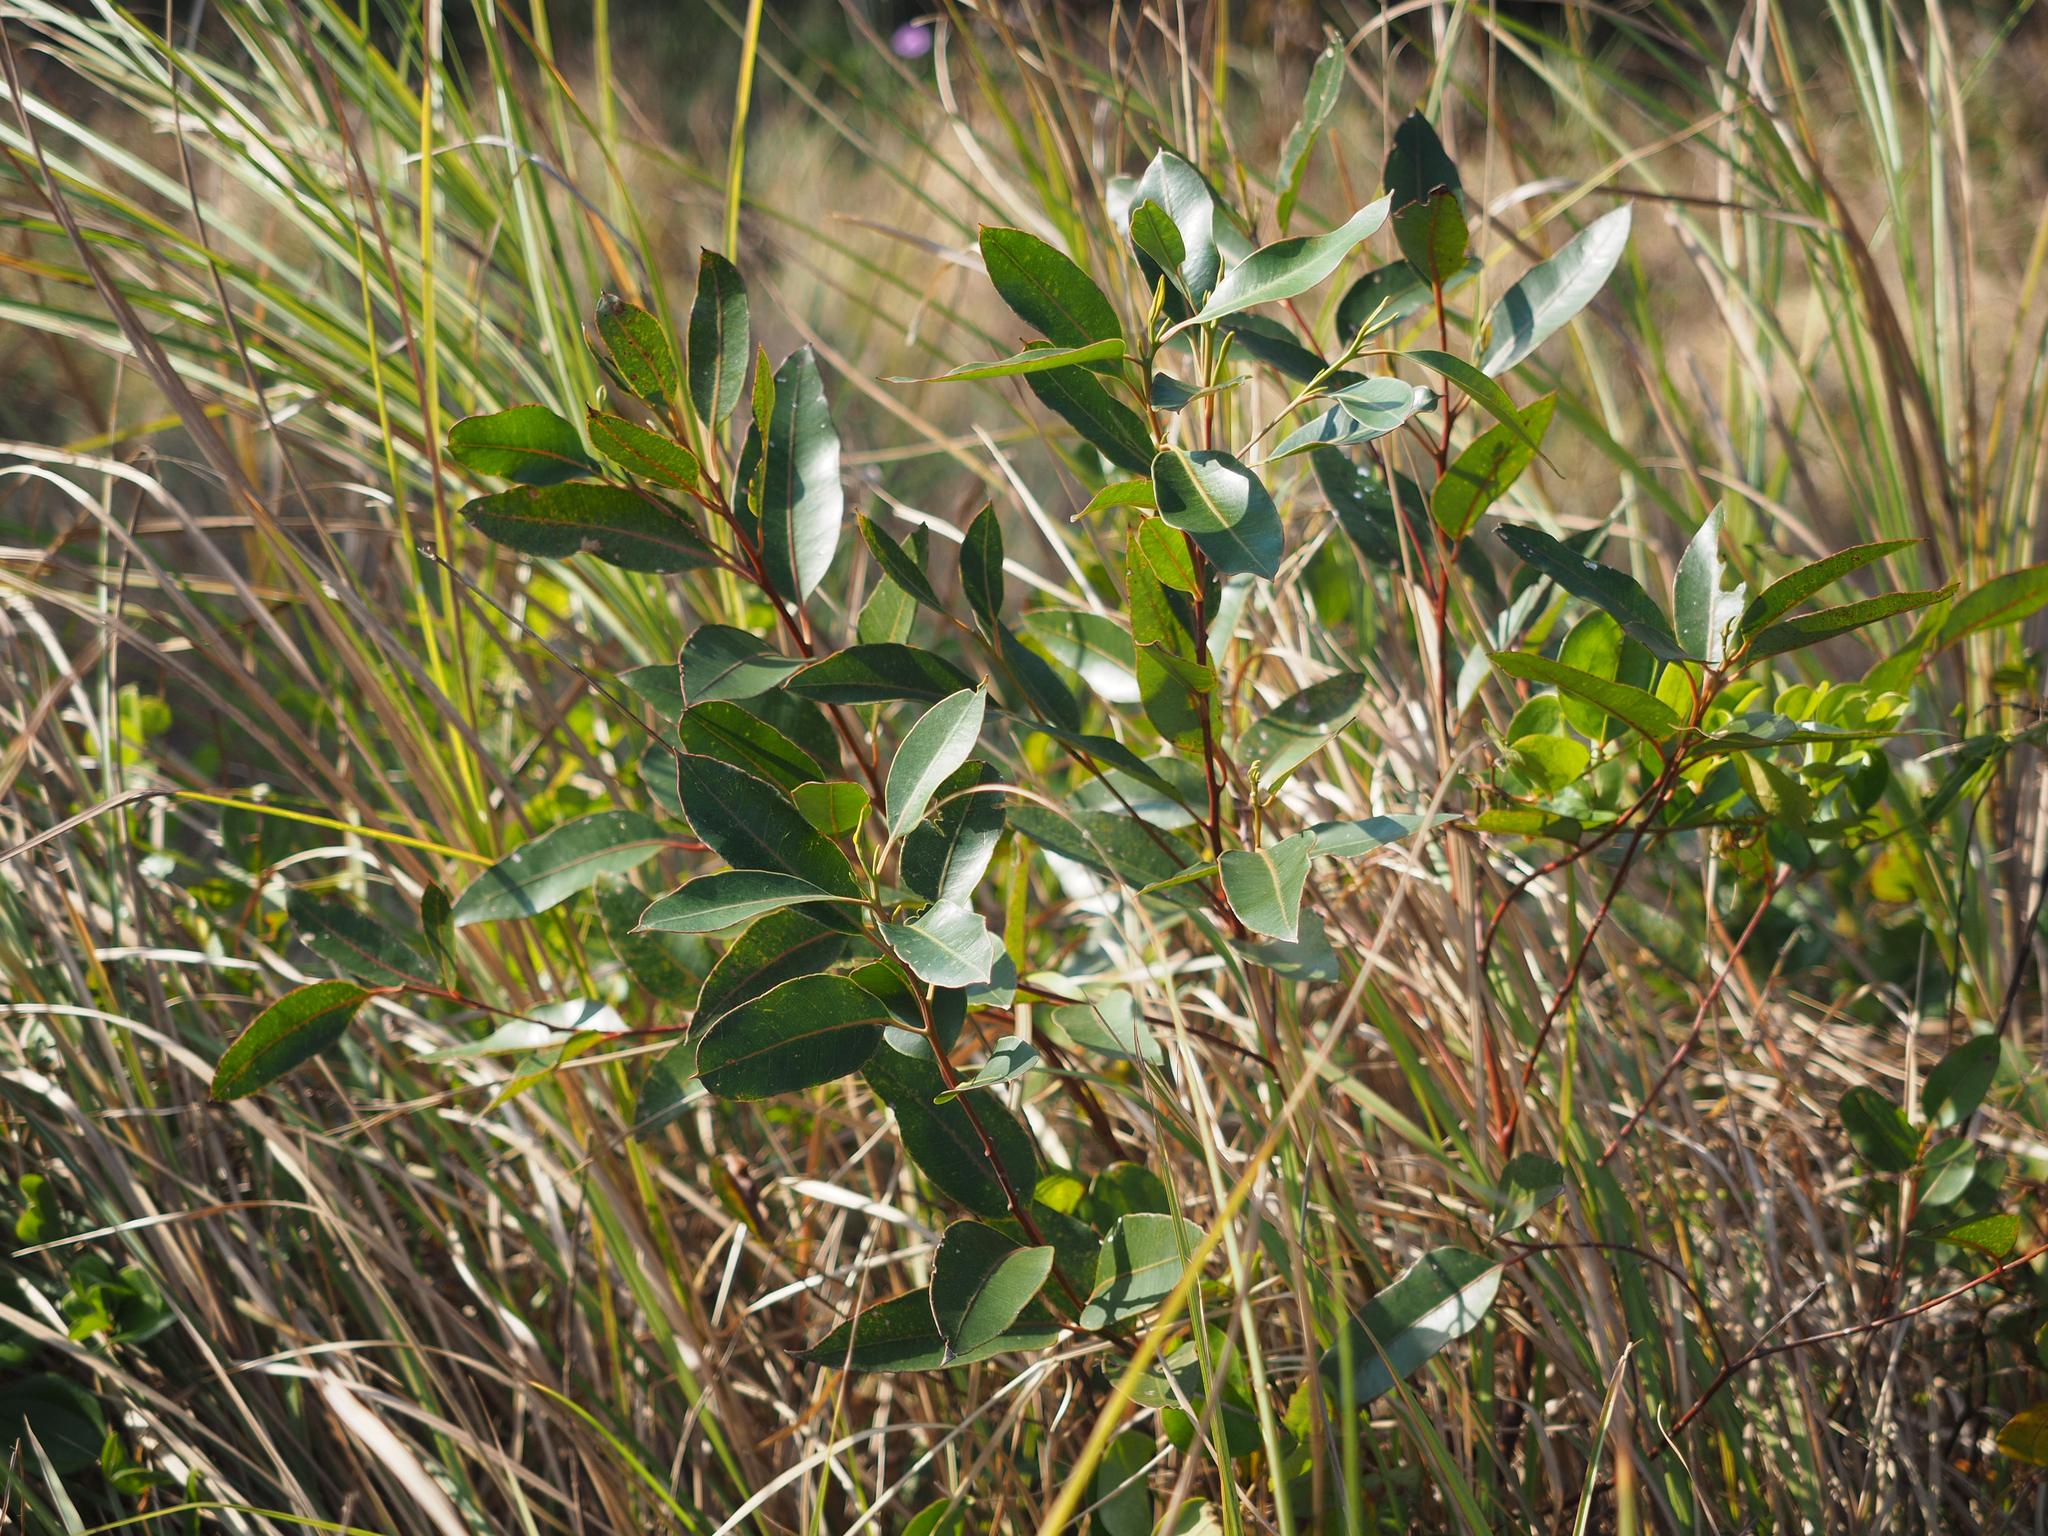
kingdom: Plantae
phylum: Tracheophyta
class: Magnoliopsida
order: Myrtales
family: Myrtaceae
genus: Eucalyptus
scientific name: Eucalyptus robusta
